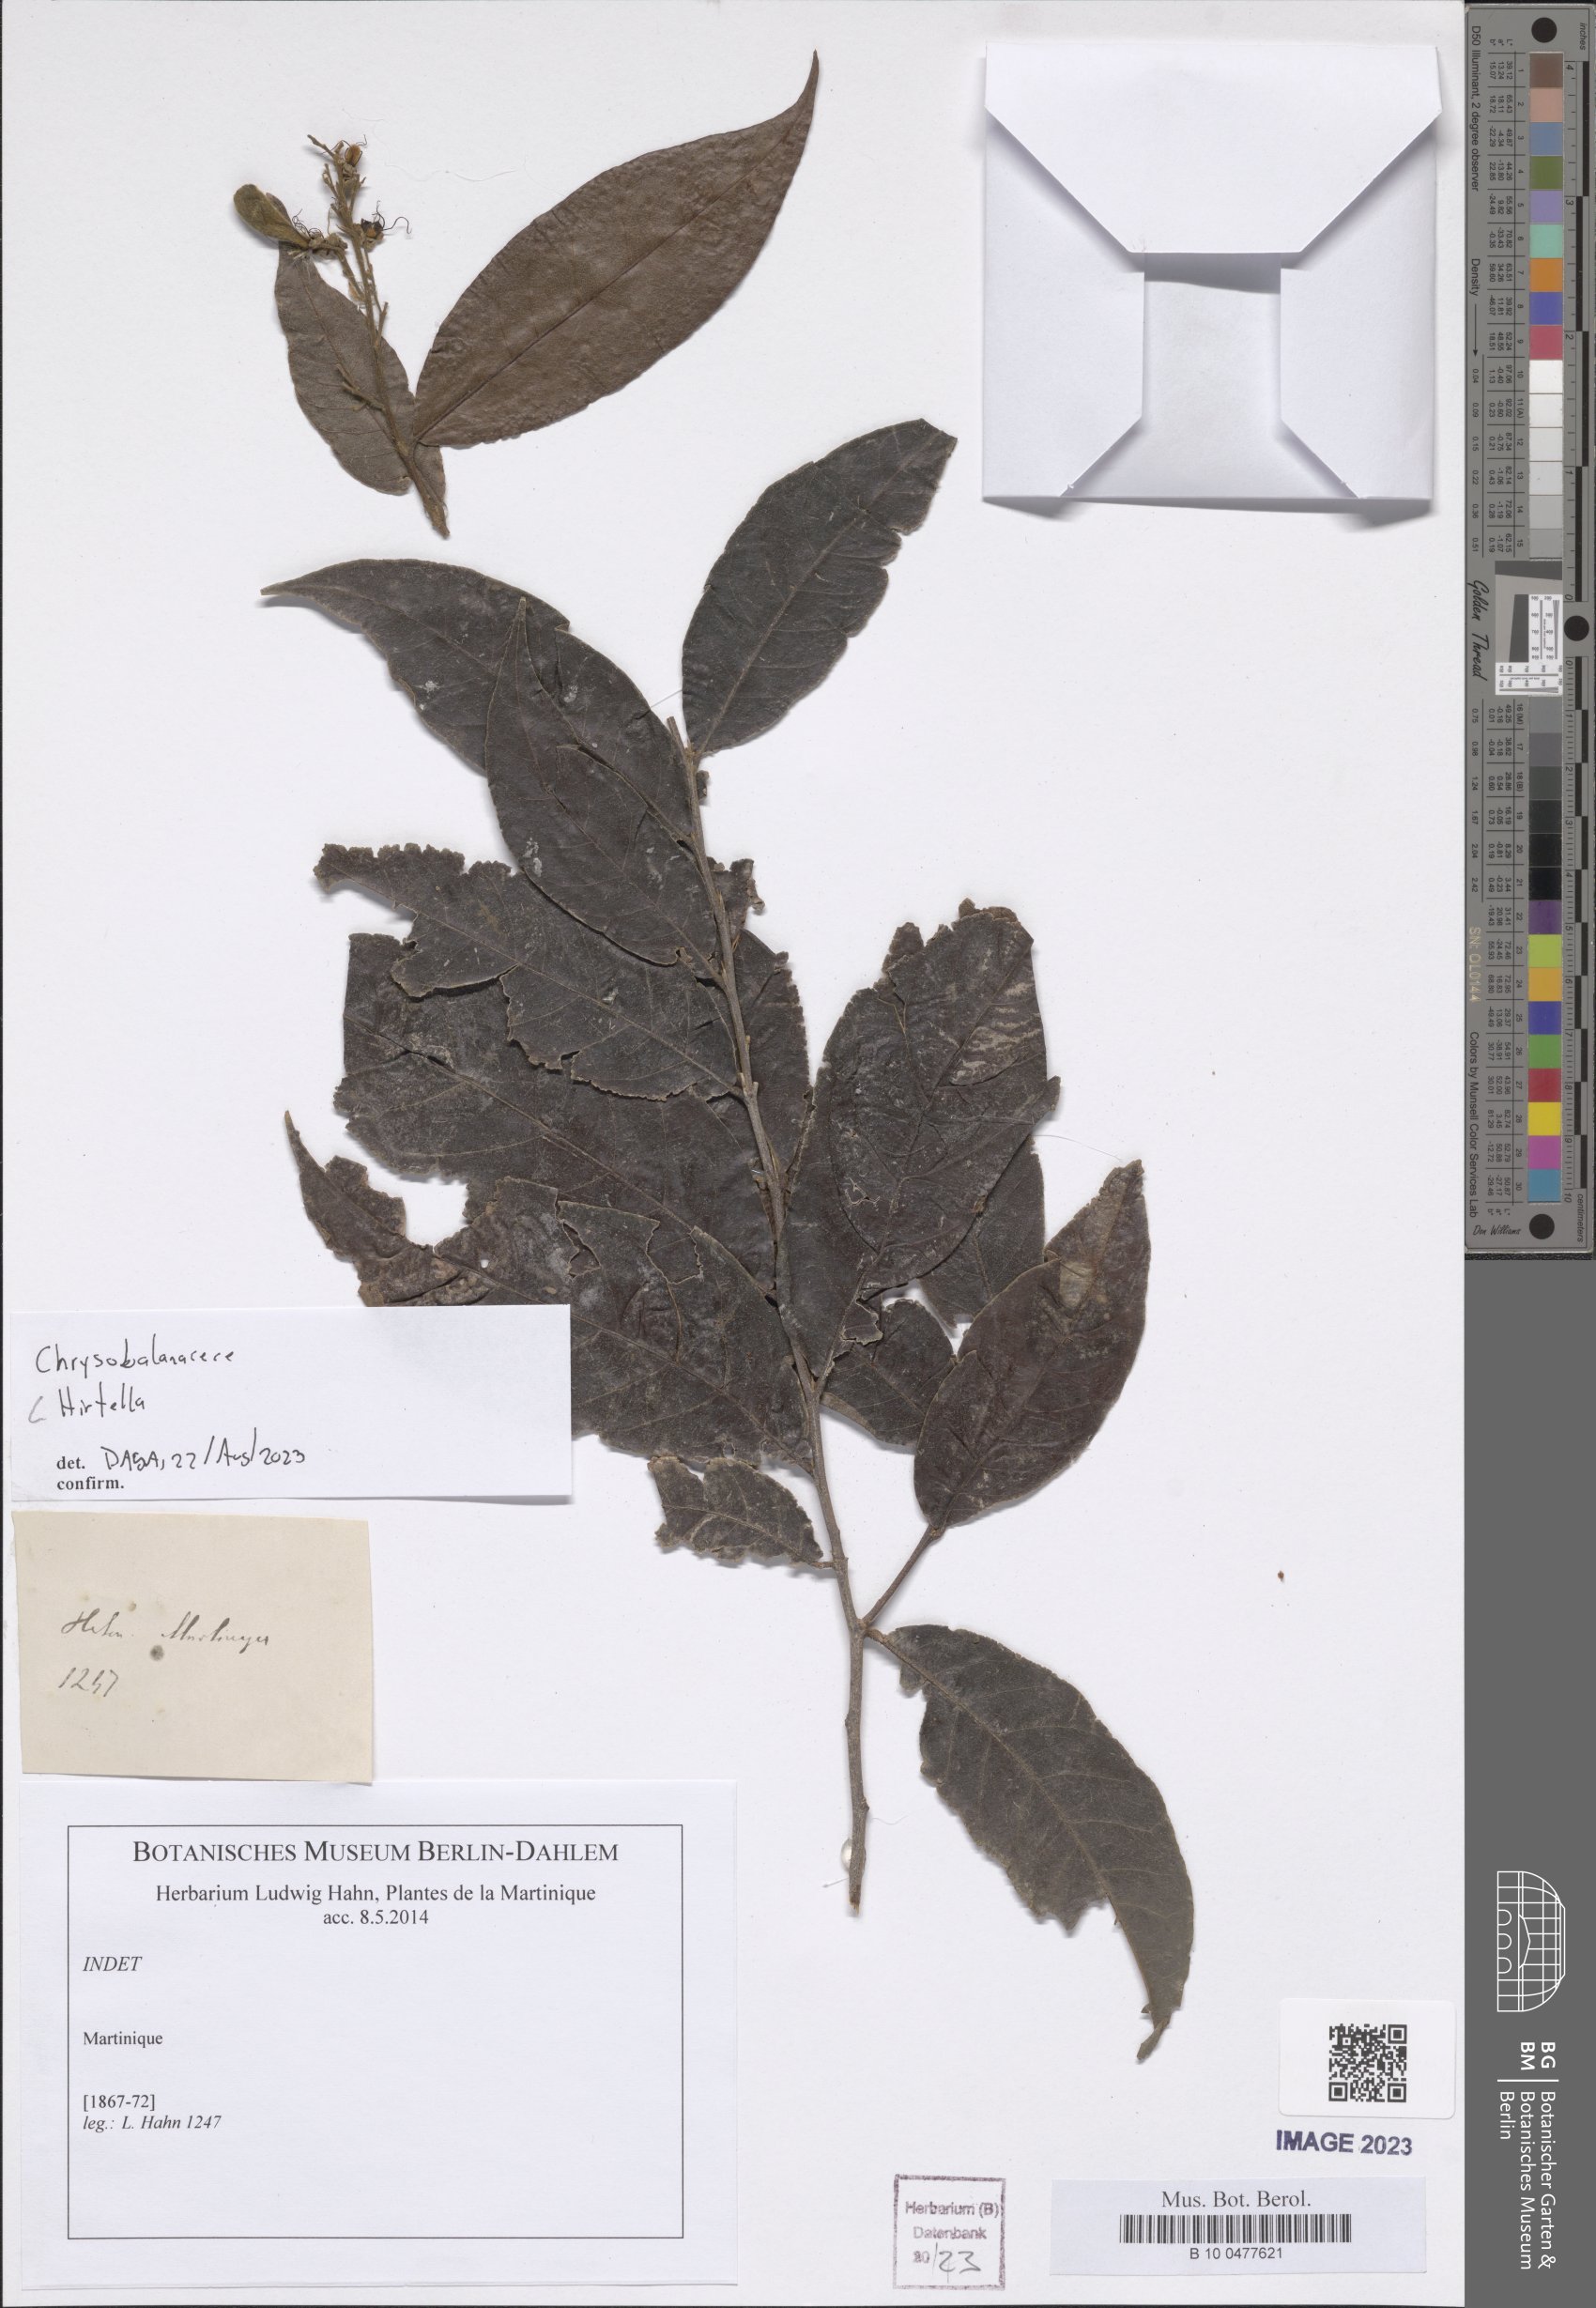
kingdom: Plantae
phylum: Tracheophyta
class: Magnoliopsida
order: Malpighiales
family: Chrysobalanaceae
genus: Hirtella
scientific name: Hirtella
